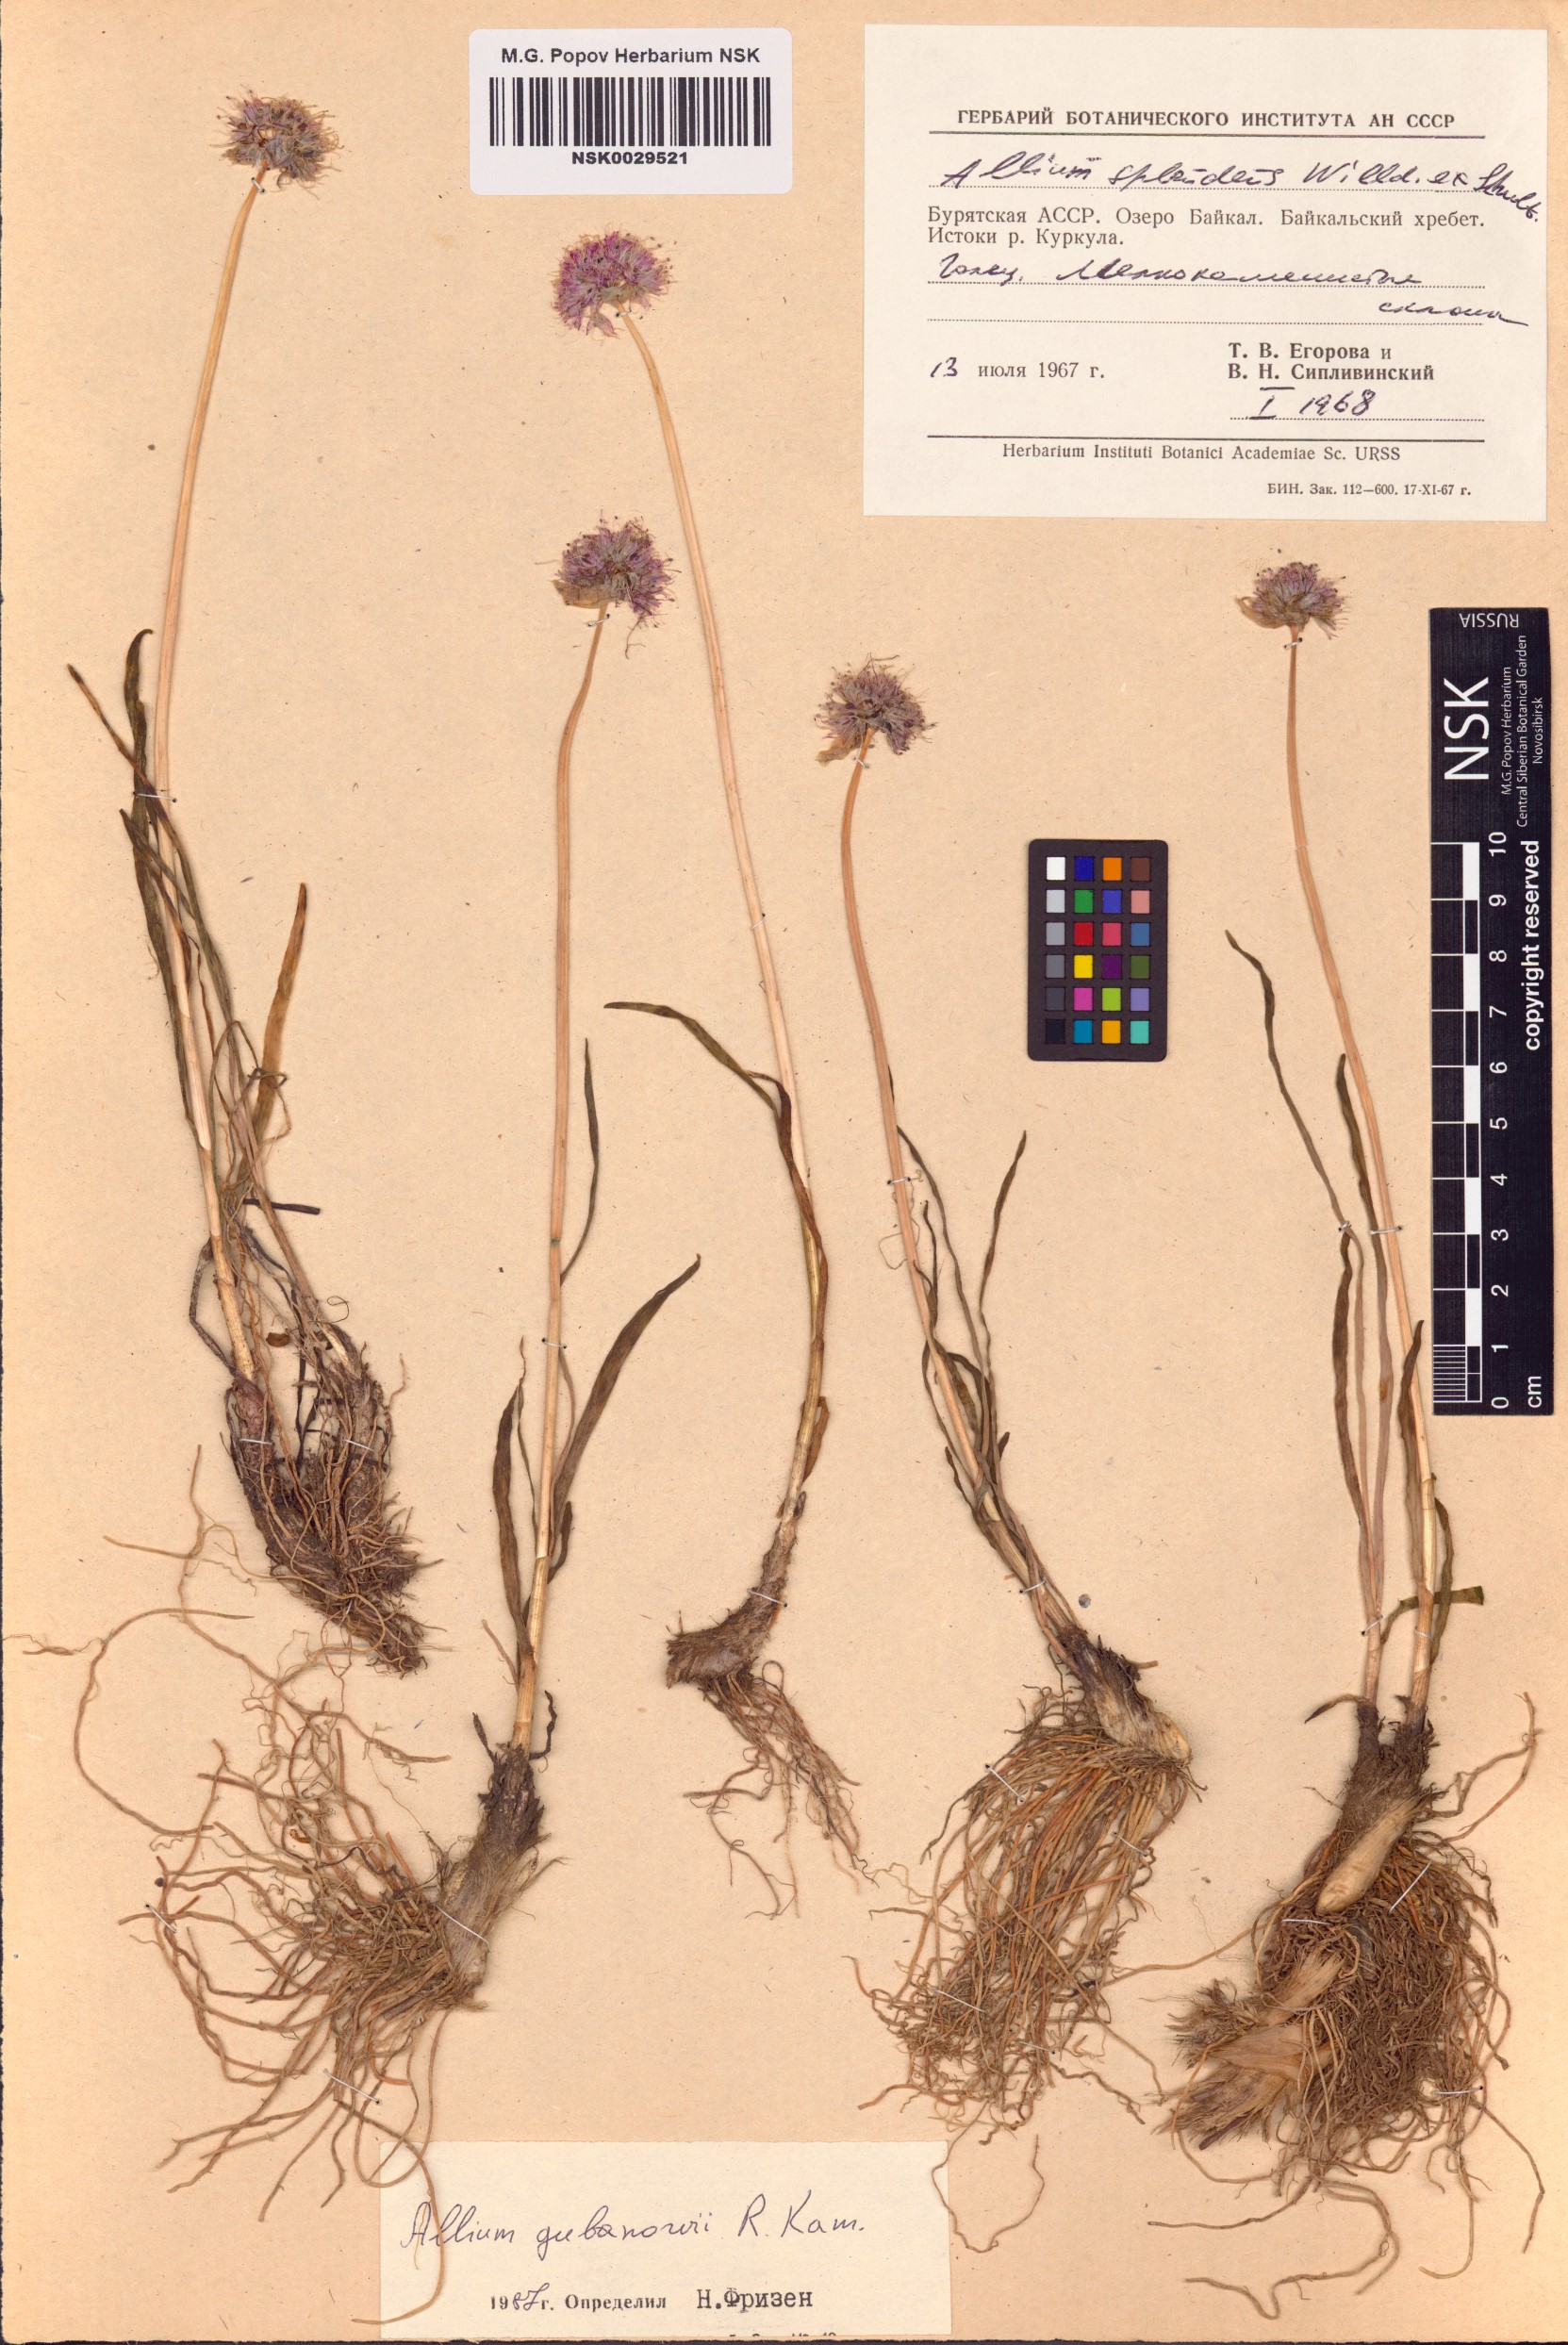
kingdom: Plantae
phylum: Tracheophyta
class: Liliopsida
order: Asparagales
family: Amaryllidaceae
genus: Allium
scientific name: Allium gubanovii
